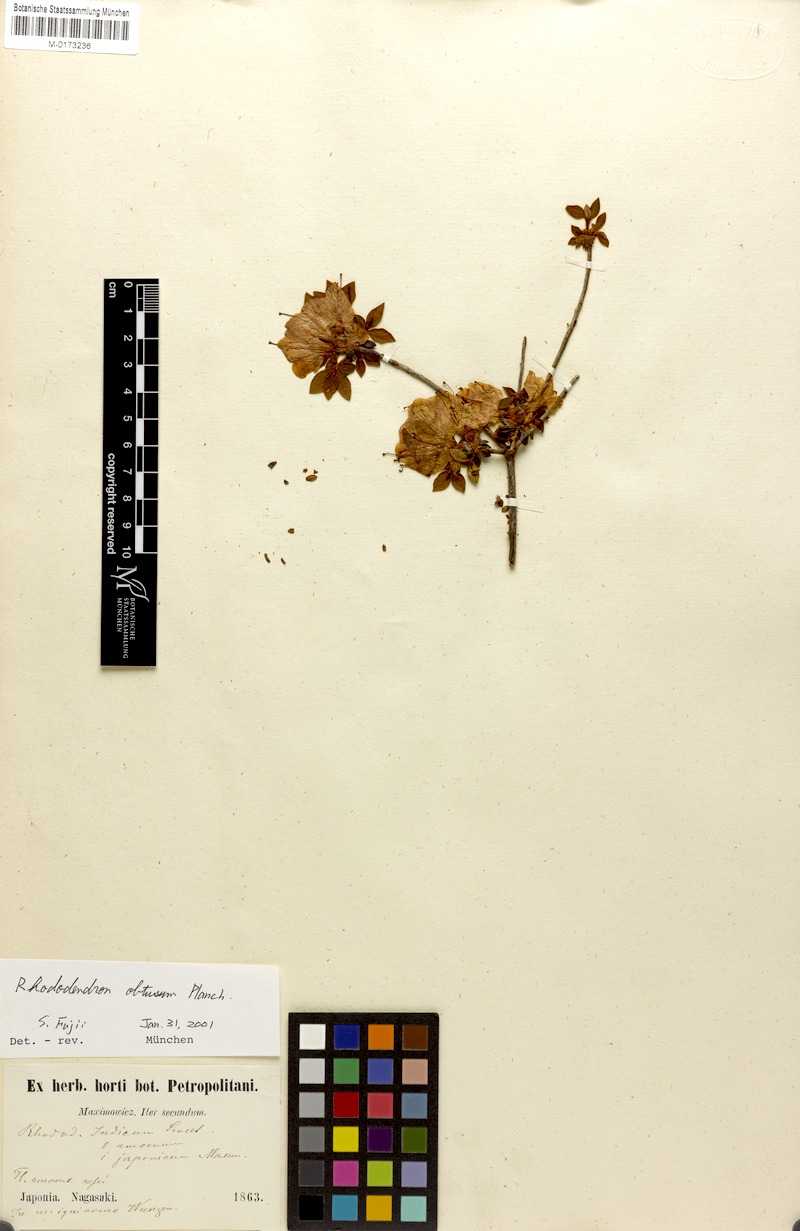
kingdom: Plantae
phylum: Tracheophyta
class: Magnoliopsida
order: Ericales
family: Ericaceae
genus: Rhododendron
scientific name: Rhododendron indicum
